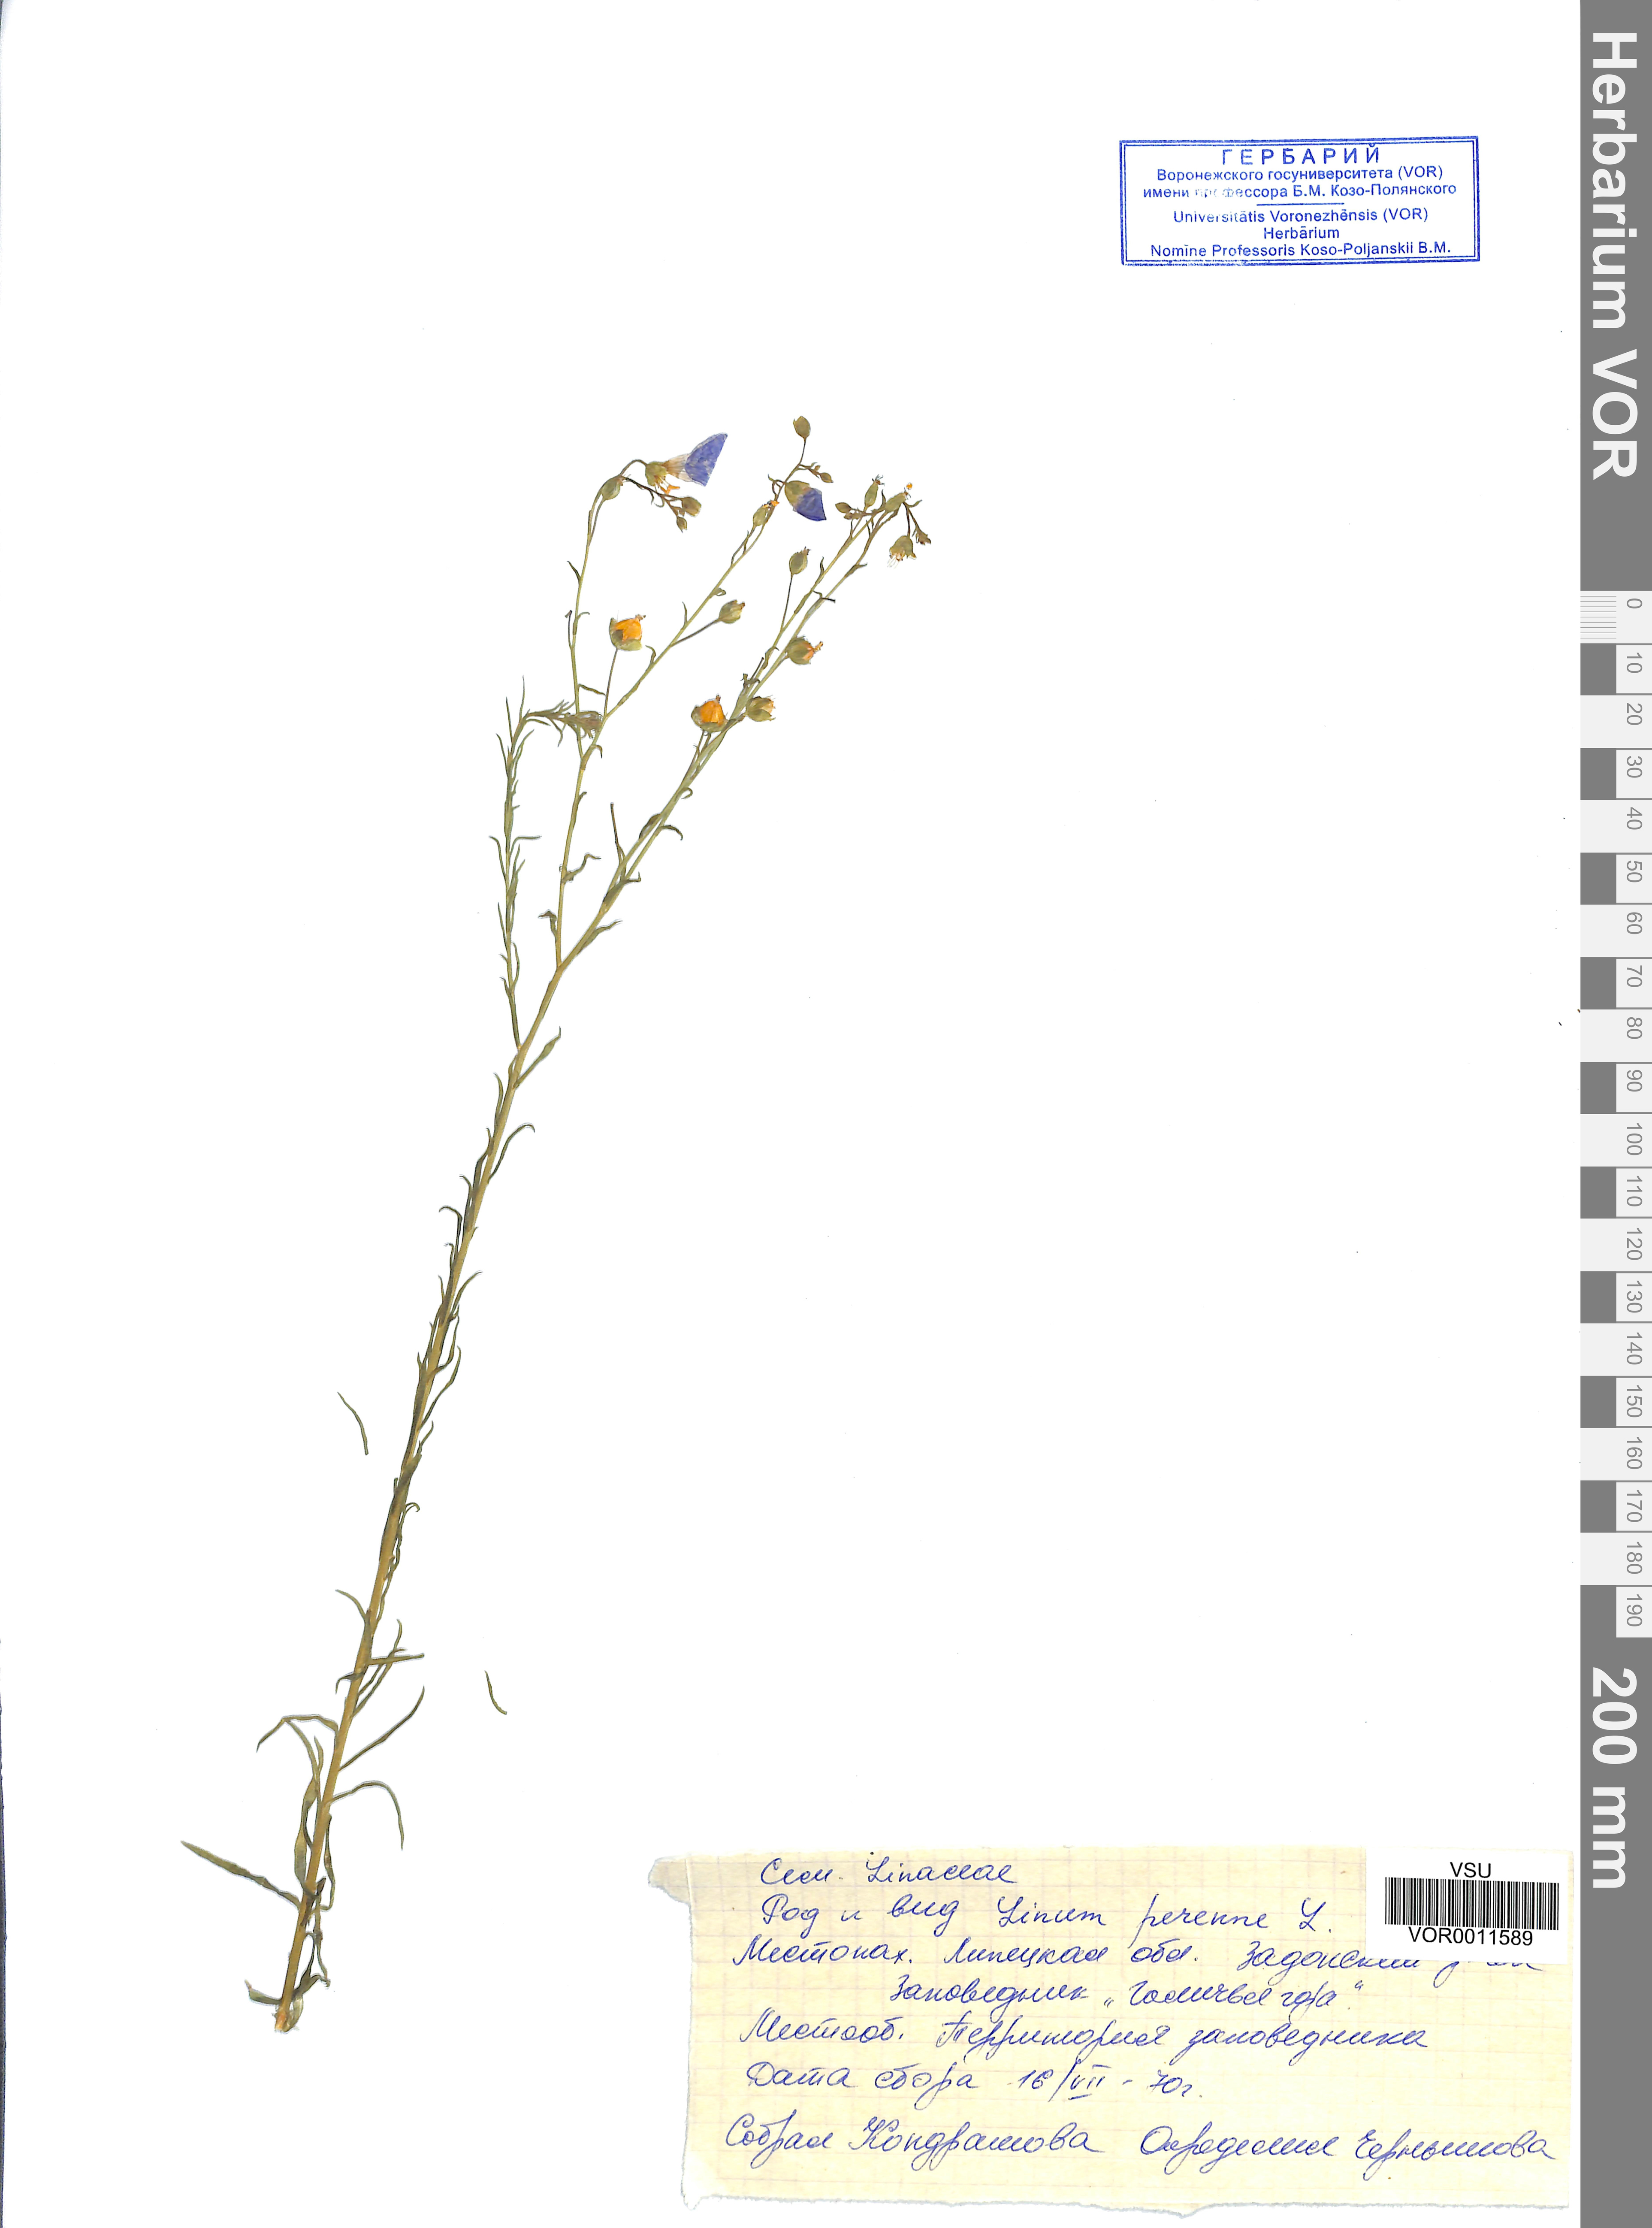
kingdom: Plantae
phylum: Tracheophyta
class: Magnoliopsida
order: Malpighiales
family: Linaceae
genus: Linum
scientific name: Linum perenne
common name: Blue flax
